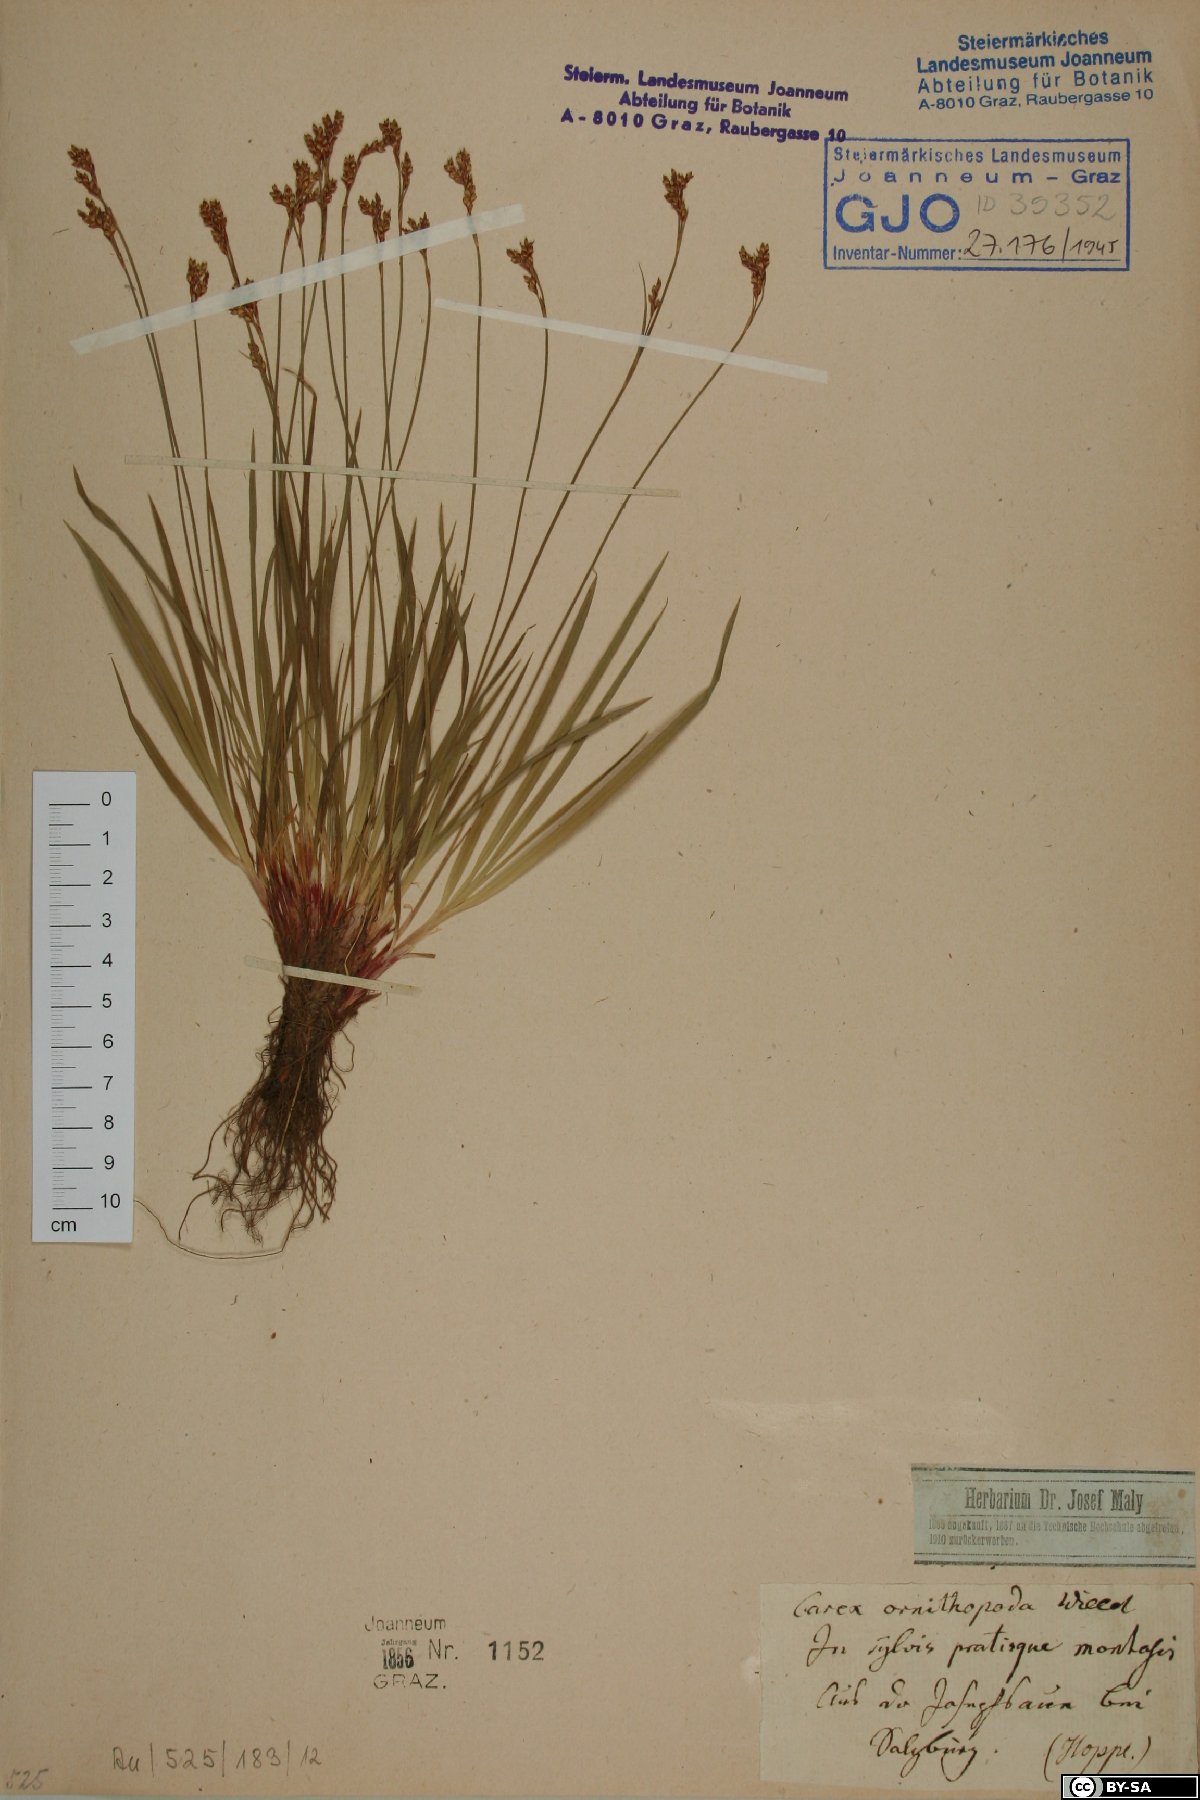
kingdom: Plantae
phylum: Tracheophyta
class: Liliopsida
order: Poales
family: Cyperaceae
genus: Carex
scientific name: Carex ornithopoda
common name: Bird's-foot sedge
